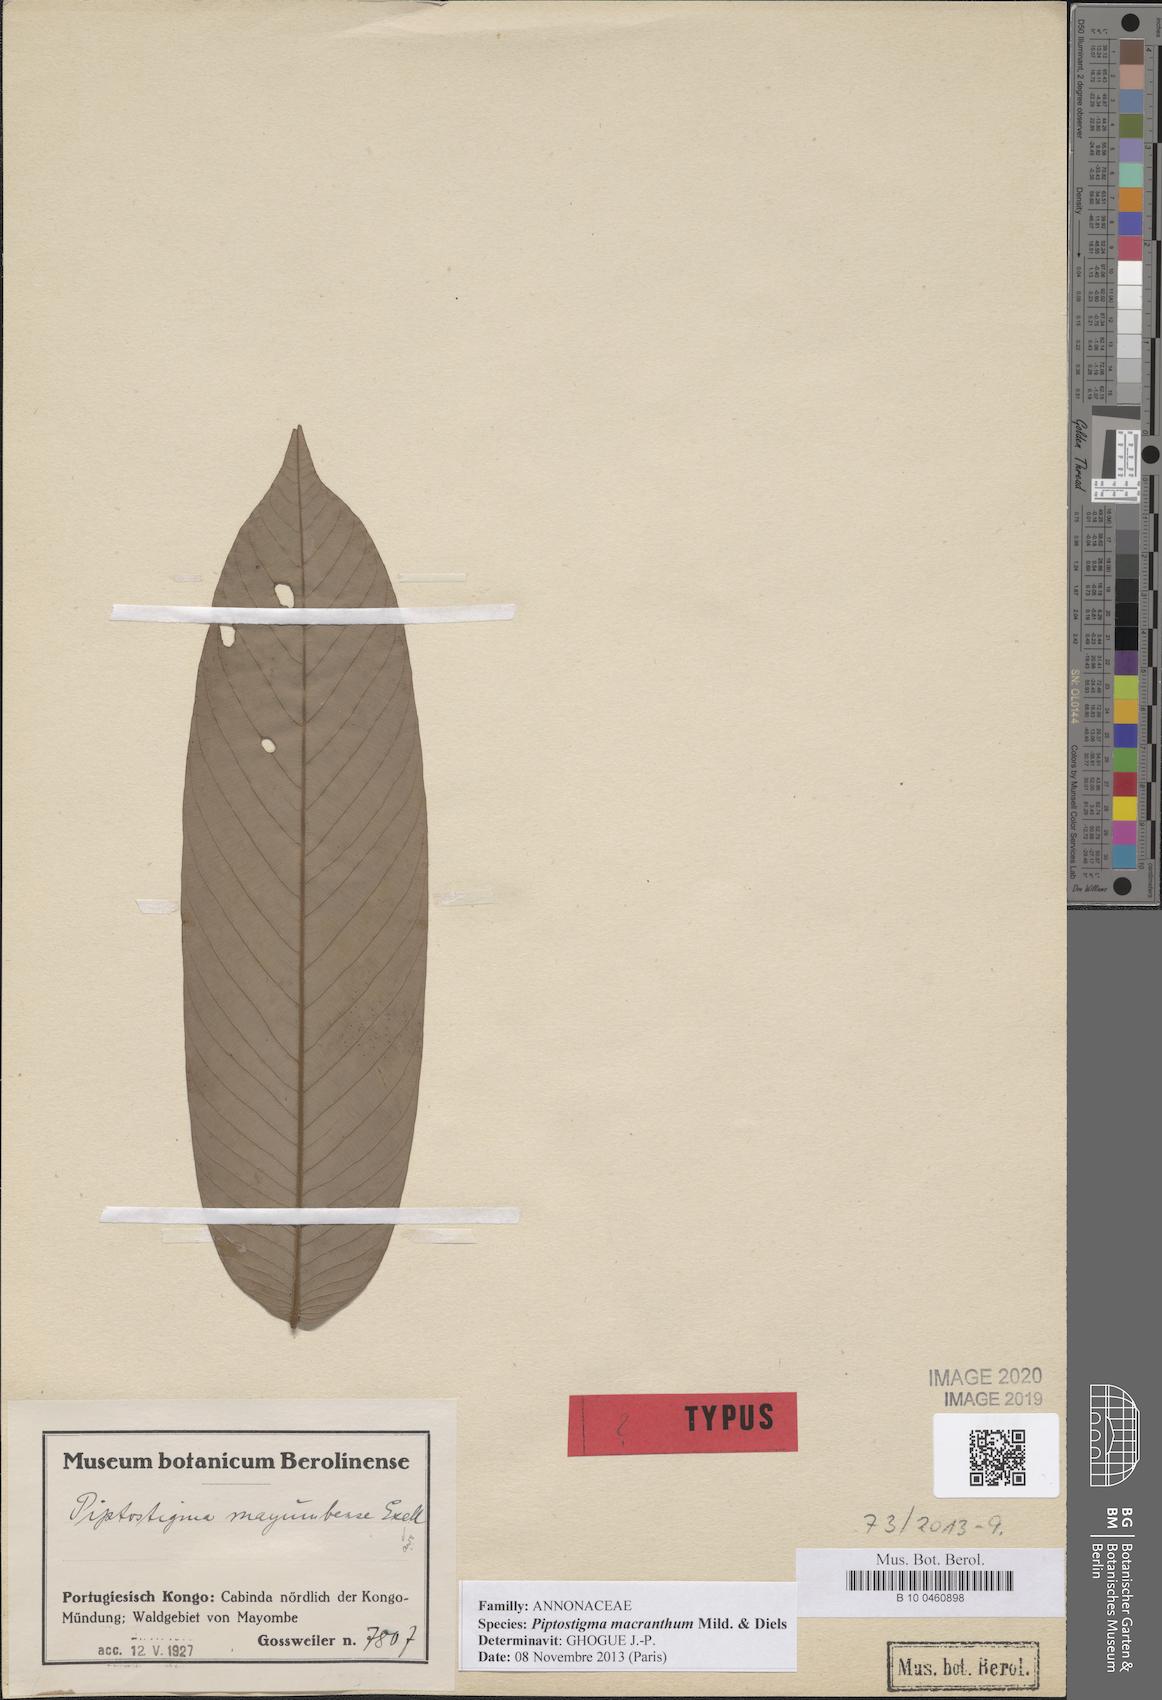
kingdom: Plantae
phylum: Tracheophyta
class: Magnoliopsida
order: Magnoliales
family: Annonaceae
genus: Piptostigma
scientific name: Piptostigma macranthum
